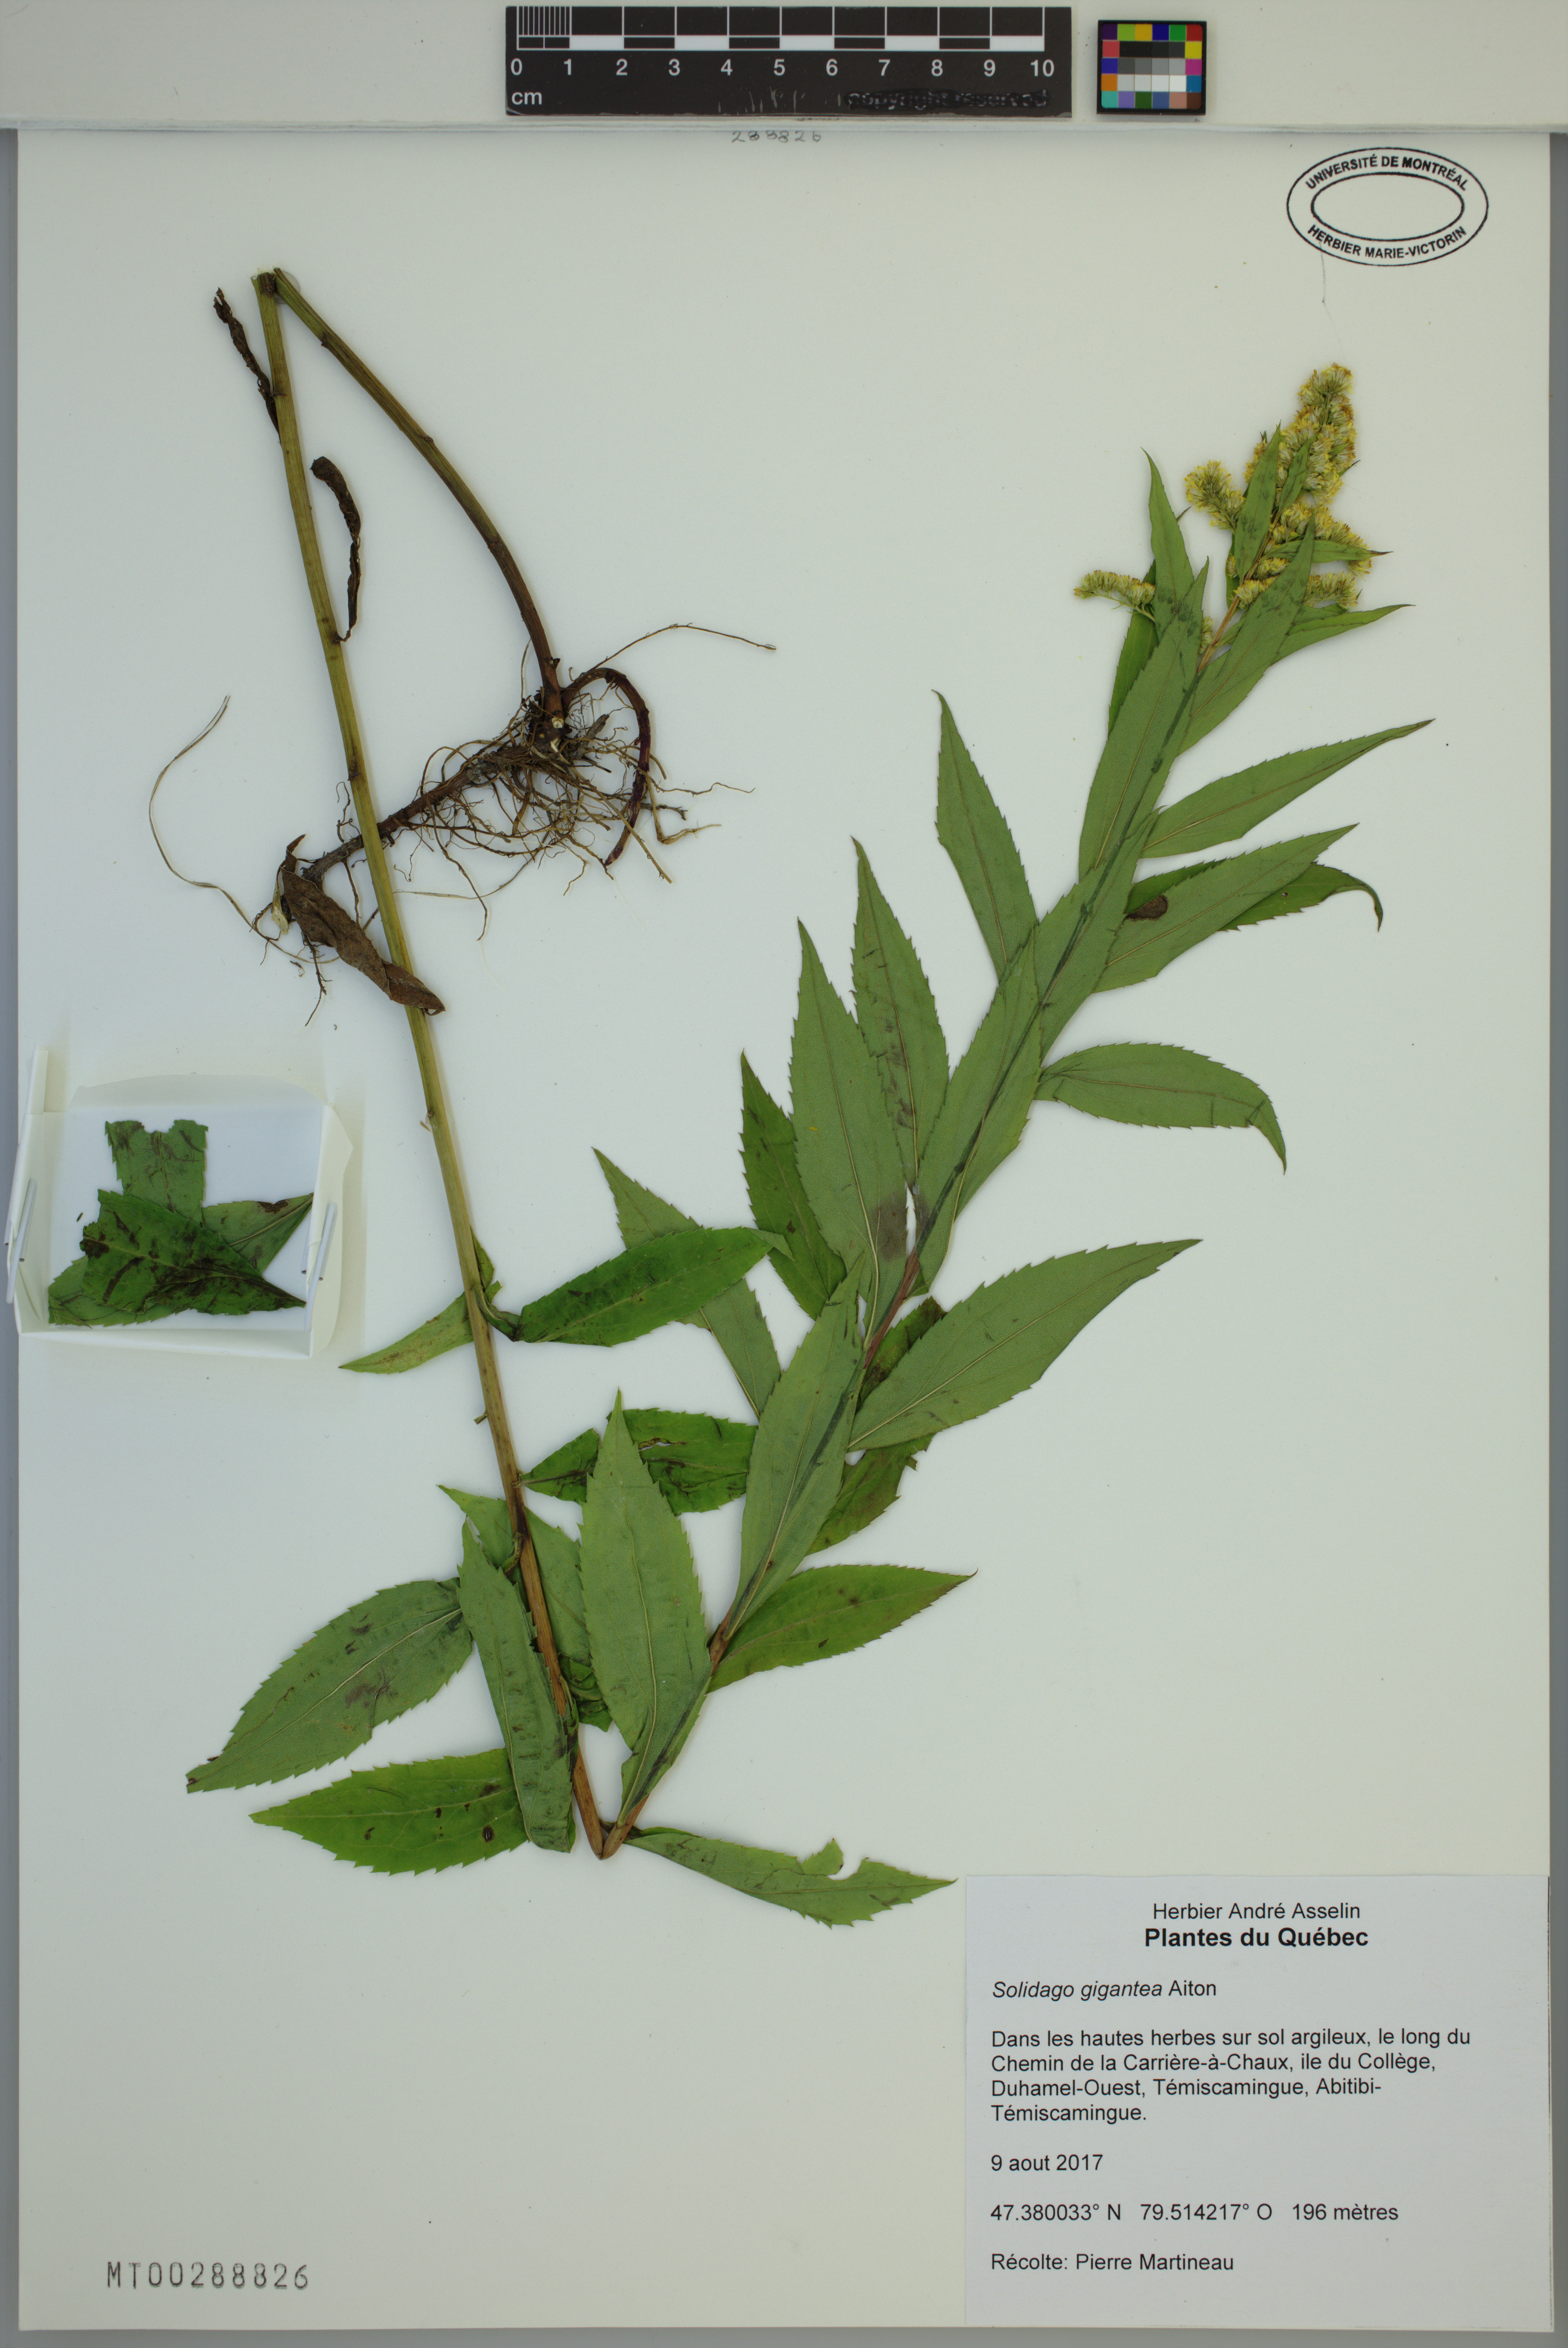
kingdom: Plantae
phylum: Tracheophyta
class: Magnoliopsida
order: Asterales
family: Asteraceae
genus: Solidago
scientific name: Solidago gigantea
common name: Giant goldenrod
